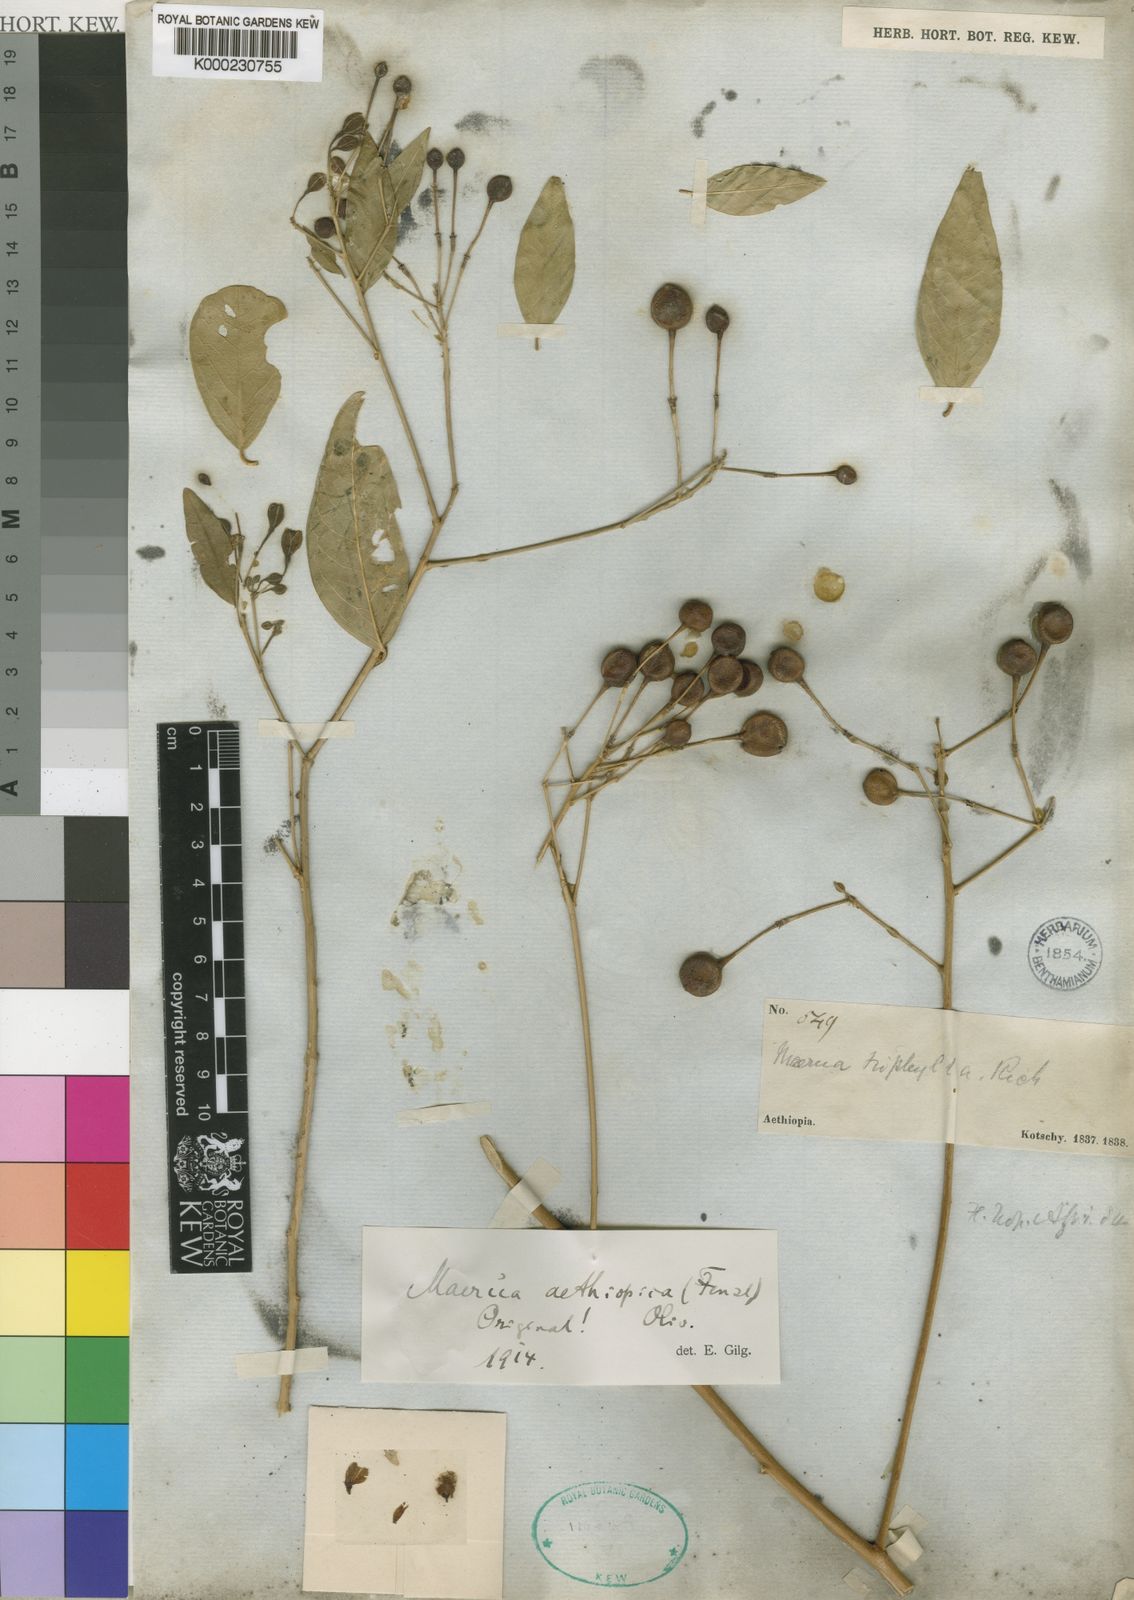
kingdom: Plantae
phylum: Tracheophyta
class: Magnoliopsida
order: Brassicales
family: Capparaceae
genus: Maerua
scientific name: Maerua aethiopica
